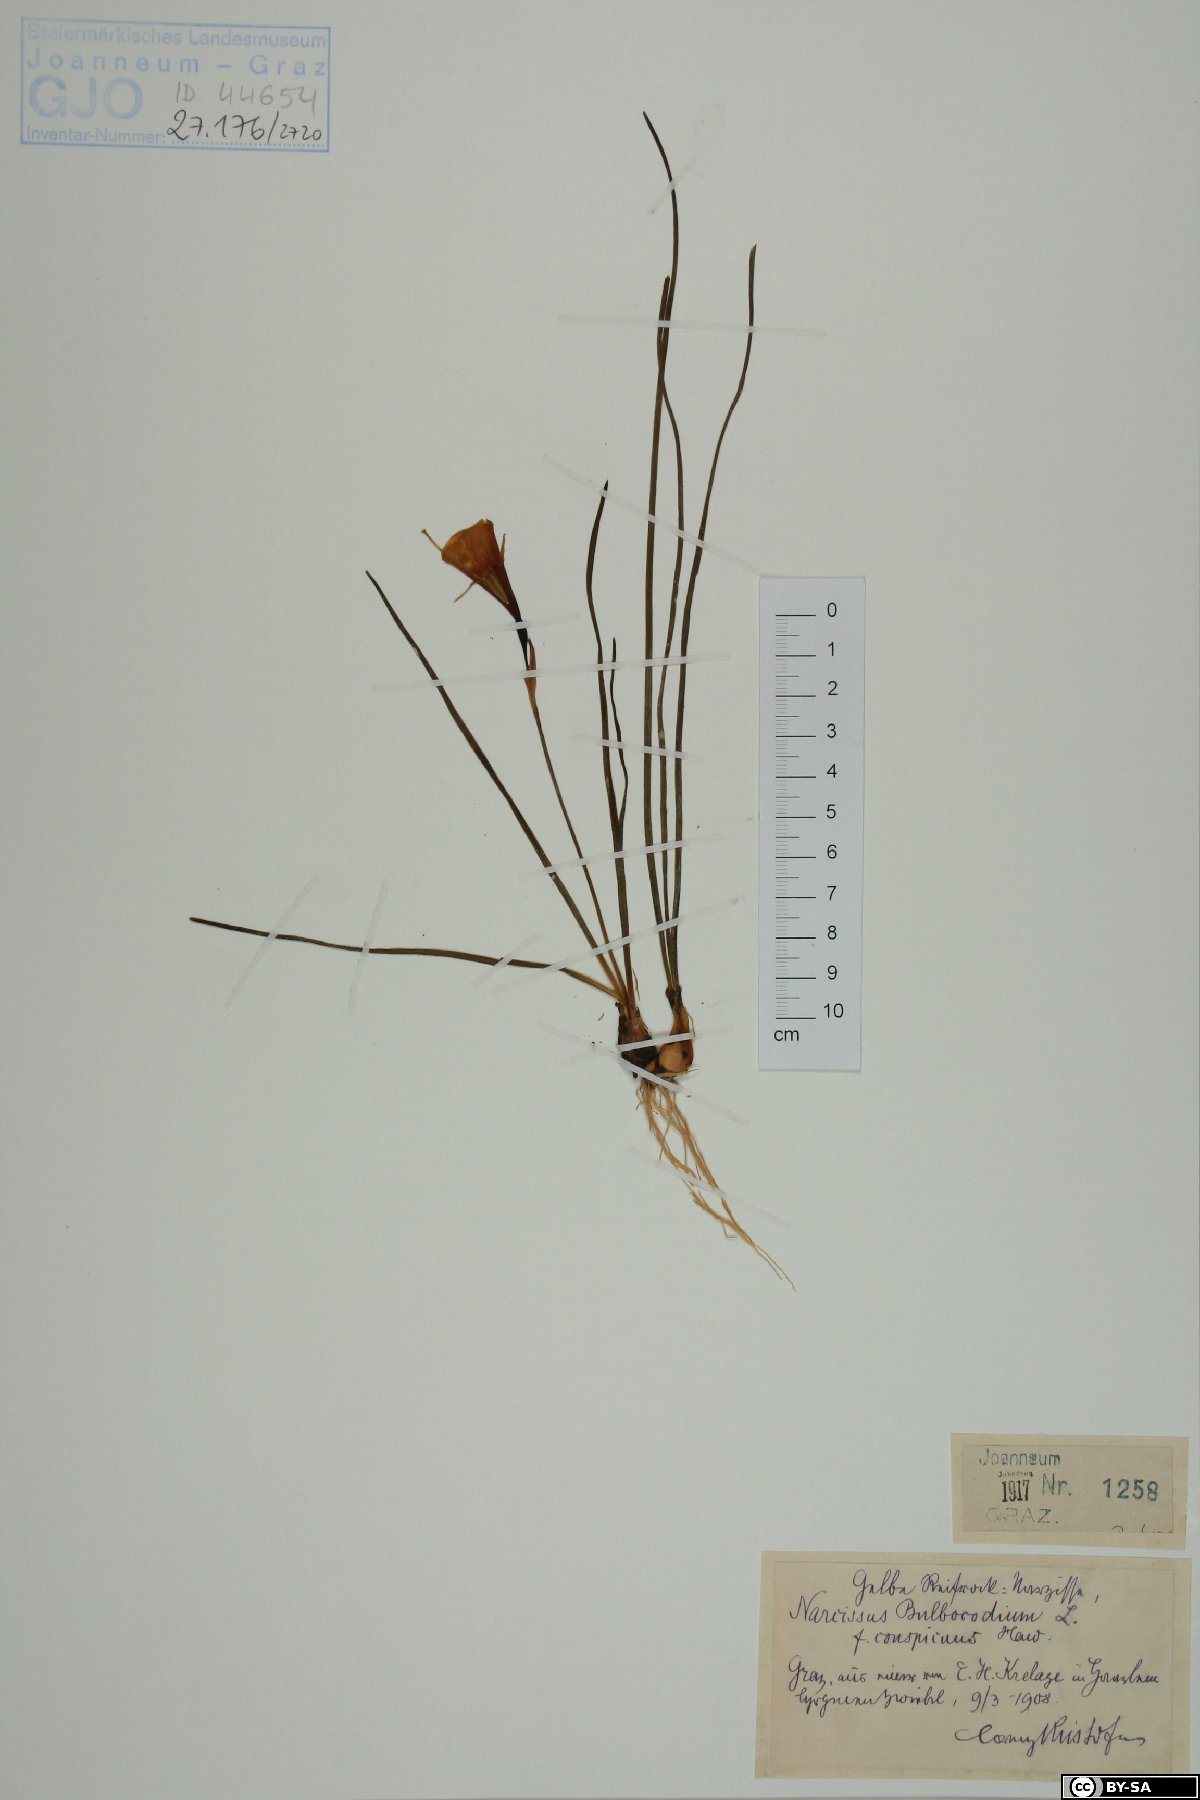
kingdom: Plantae
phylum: Tracheophyta
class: Liliopsida
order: Asparagales
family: Amaryllidaceae
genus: Narcissus
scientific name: Narcissus bulbocodium
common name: Hoop-petticoat daffodil
